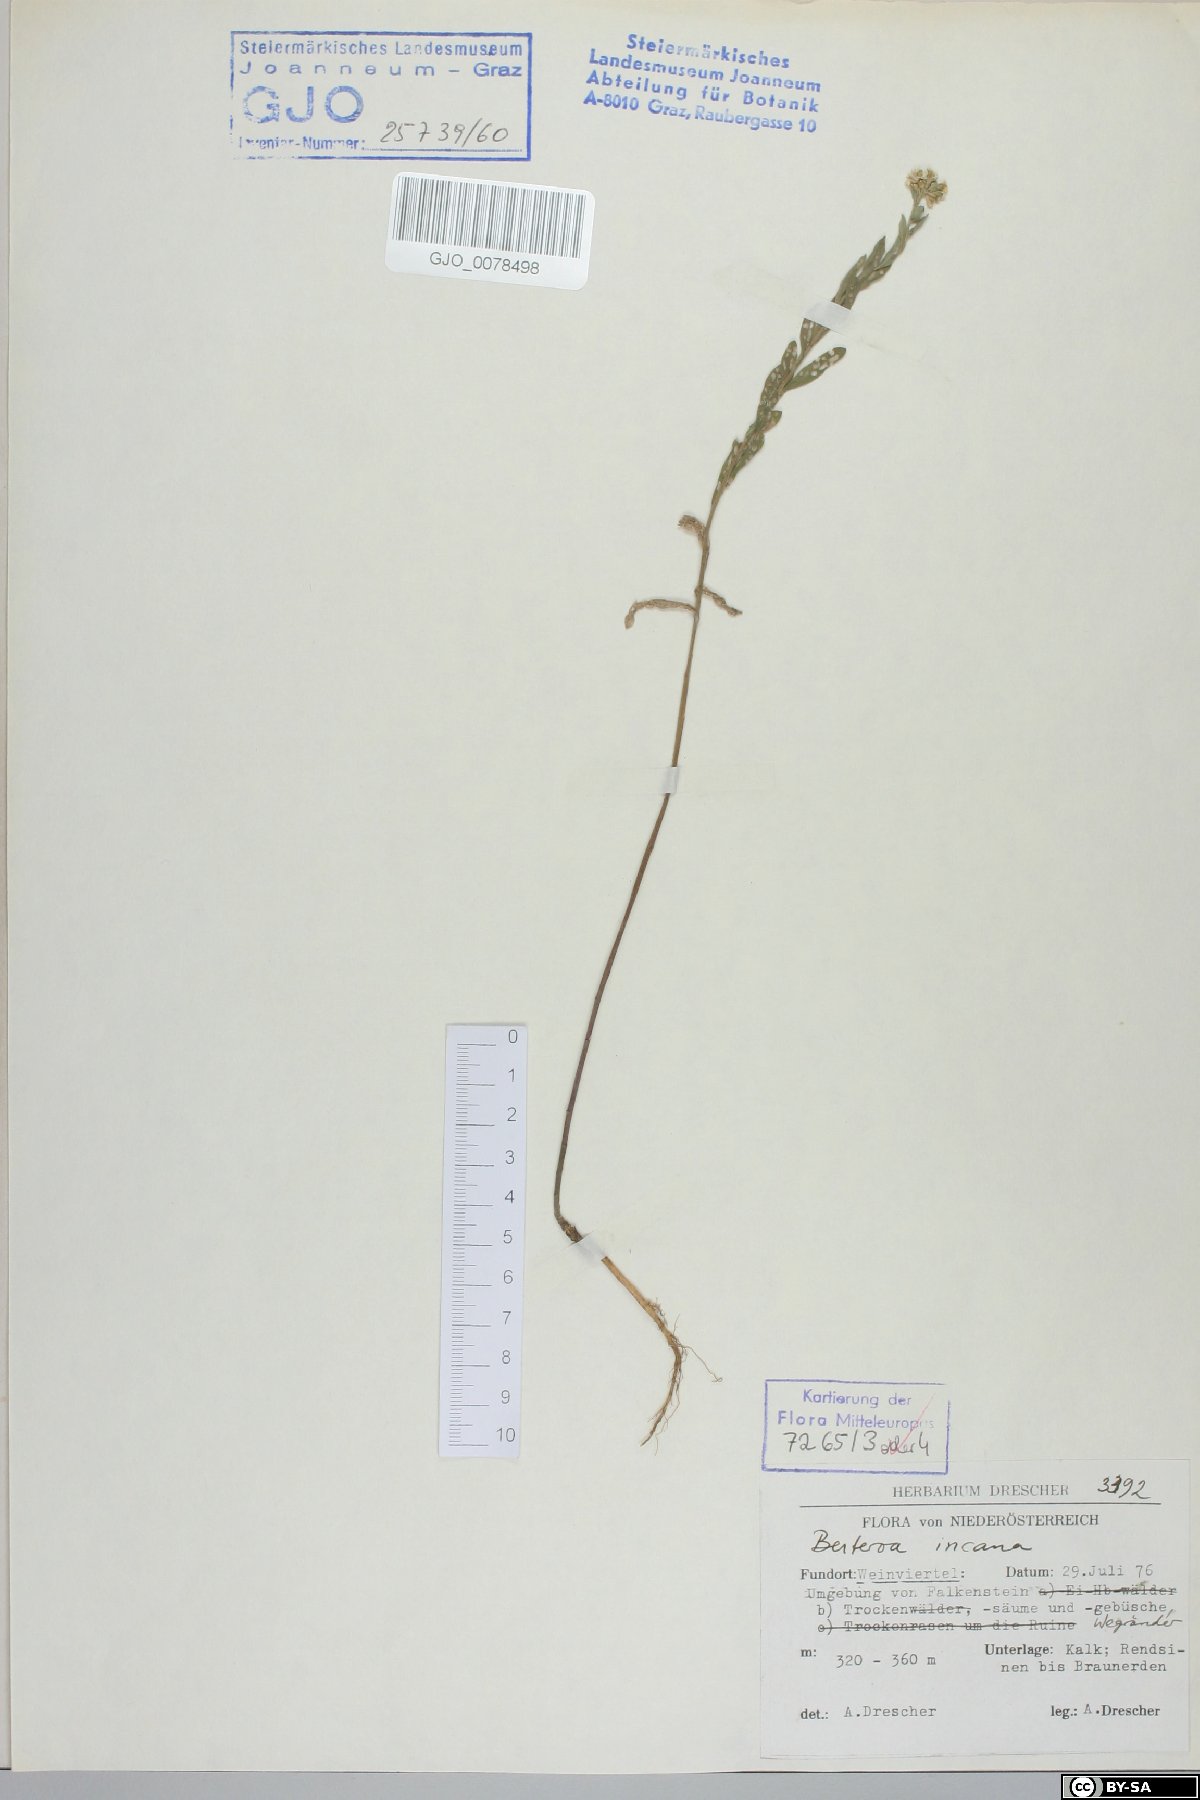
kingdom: Plantae
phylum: Tracheophyta
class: Magnoliopsida
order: Brassicales
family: Brassicaceae
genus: Berteroa
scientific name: Berteroa incana
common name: Hoary alison
